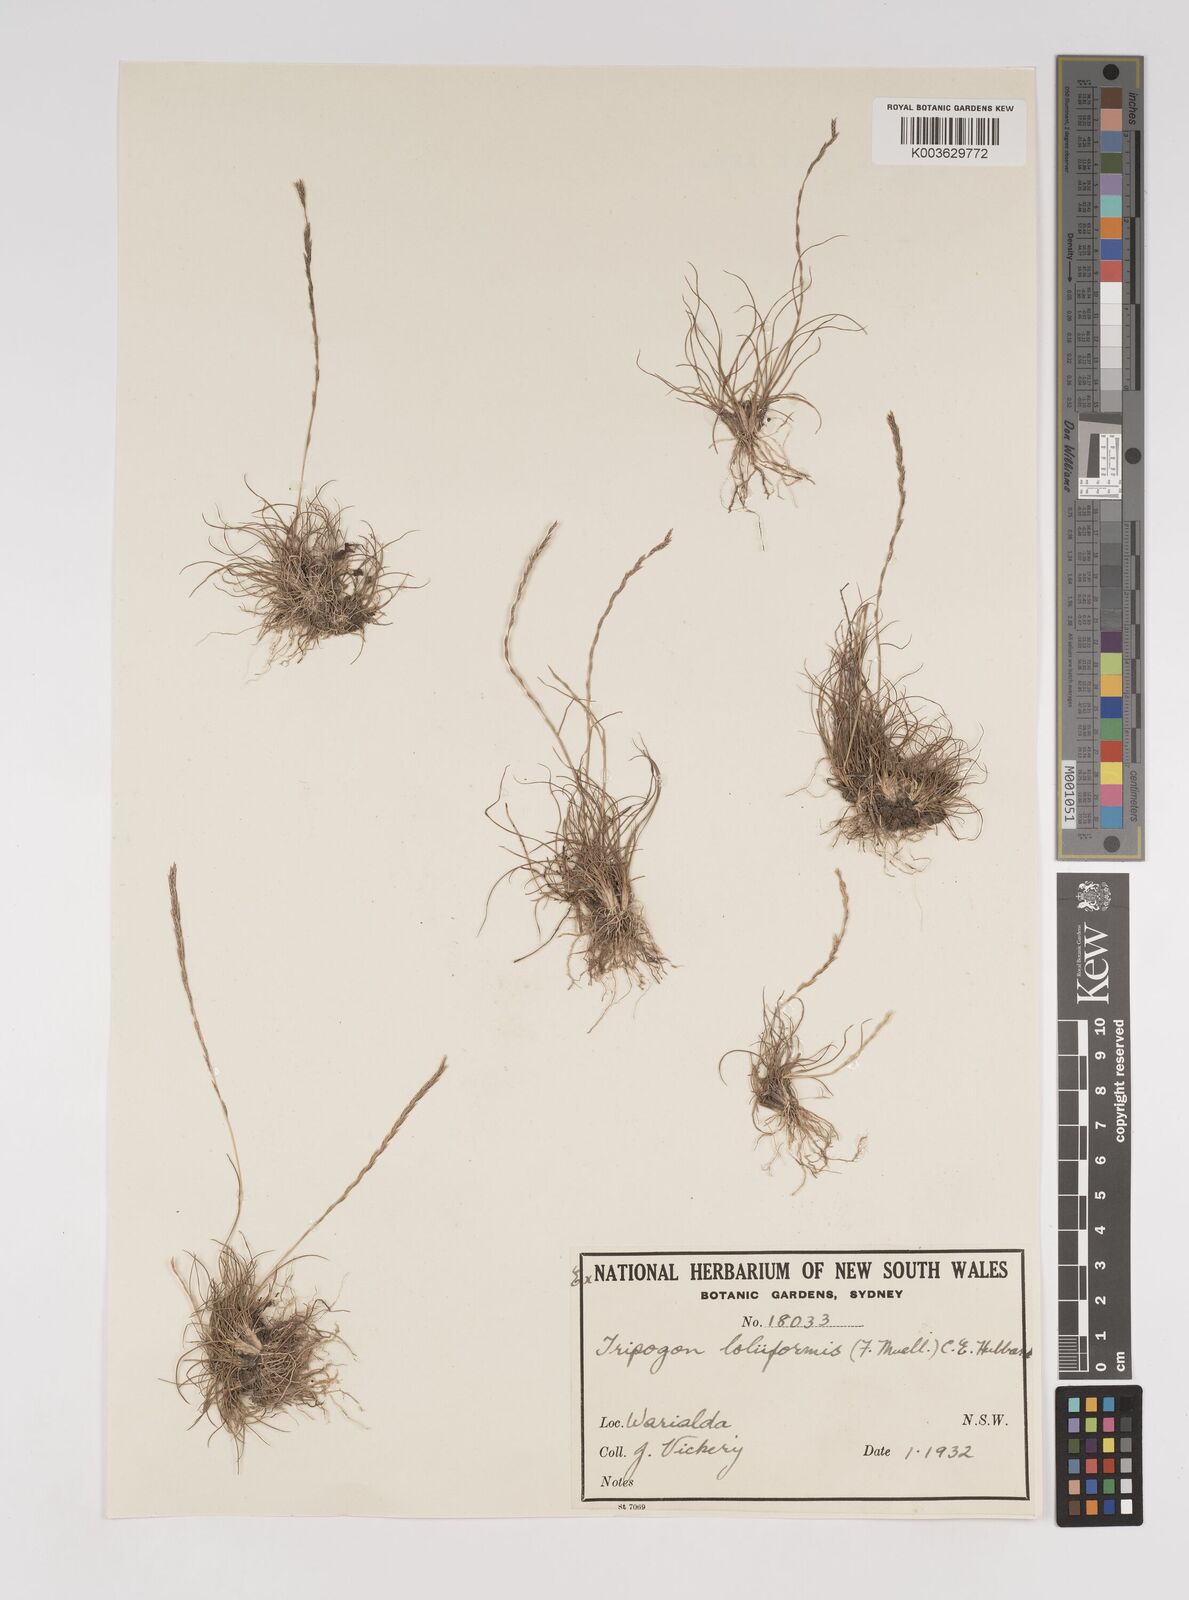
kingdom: Plantae
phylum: Tracheophyta
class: Liliopsida
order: Poales
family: Poaceae
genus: Tripogonella
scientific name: Tripogonella loliiformis
